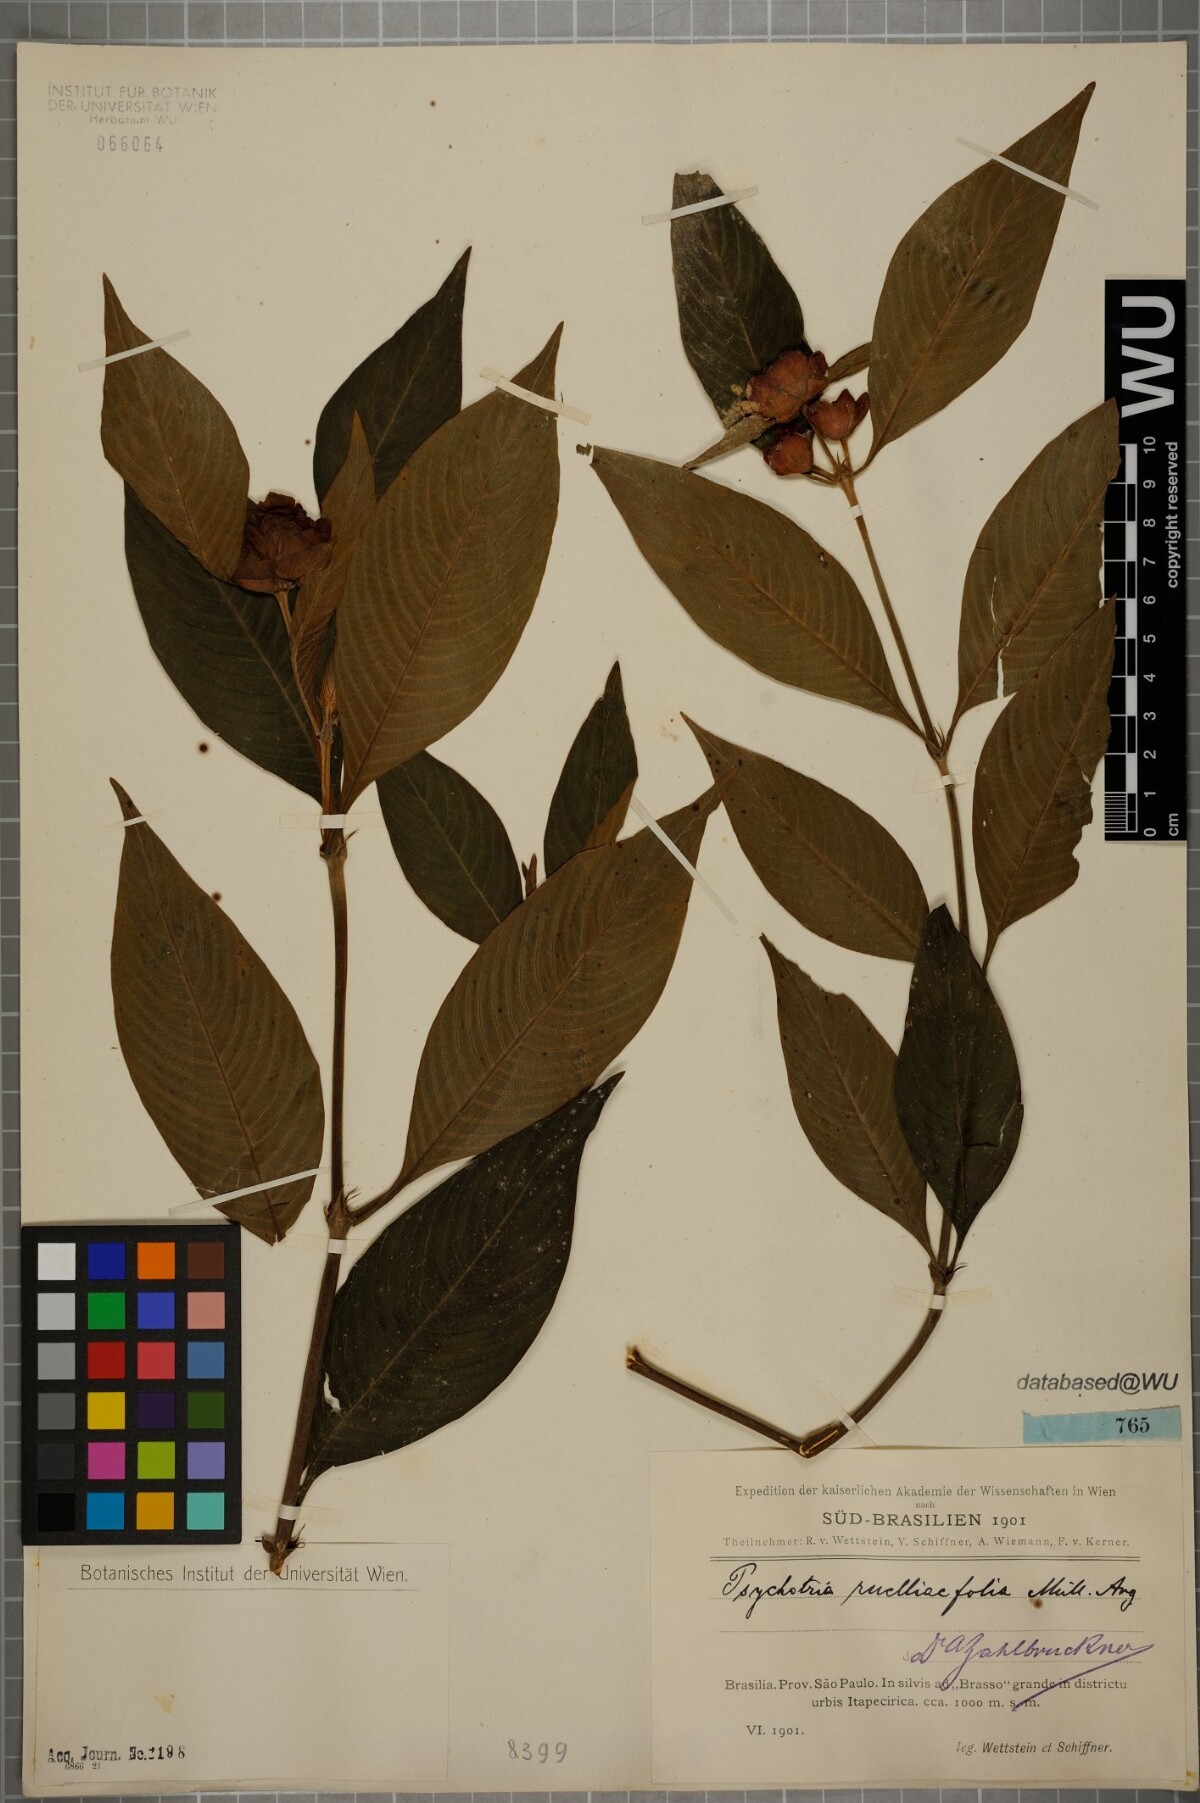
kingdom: Plantae
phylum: Tracheophyta
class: Magnoliopsida
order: Gentianales
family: Rubiaceae
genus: Palicourea
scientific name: Palicourea ruelliifolia
